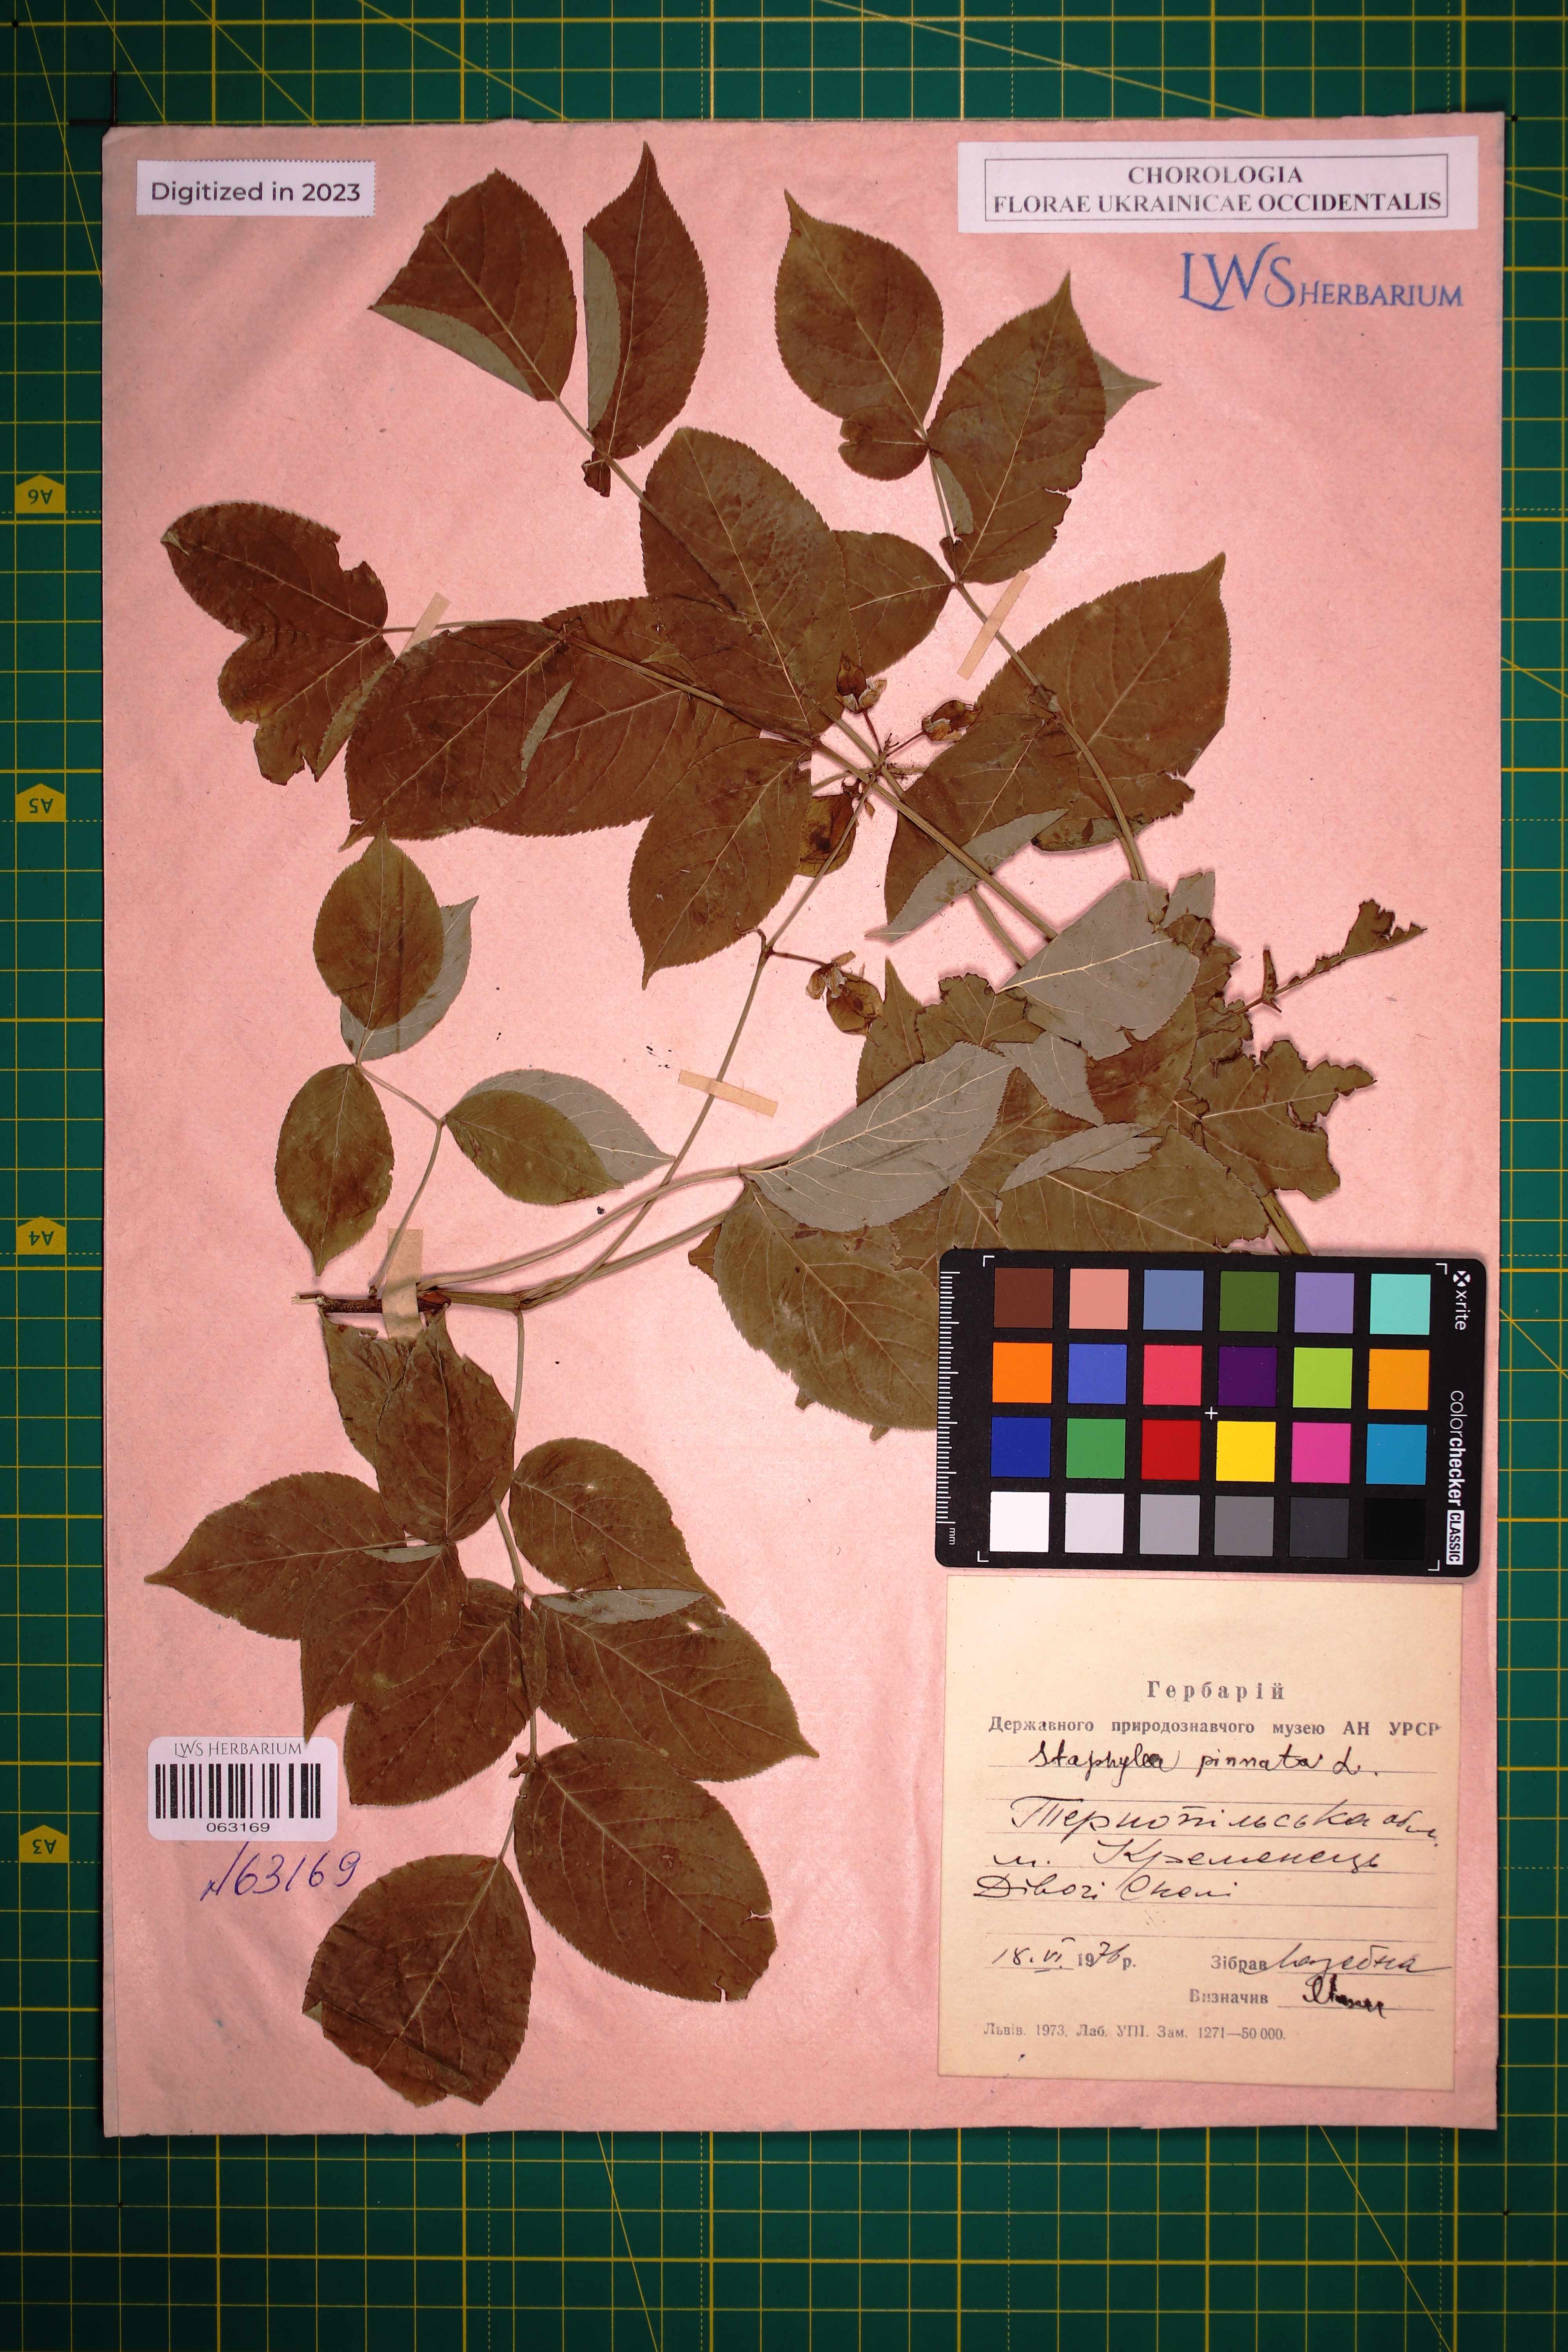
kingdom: Plantae
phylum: Tracheophyta
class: Magnoliopsida
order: Crossosomatales
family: Staphyleaceae
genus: Staphylea
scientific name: Staphylea pinnata
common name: Bladdernut
